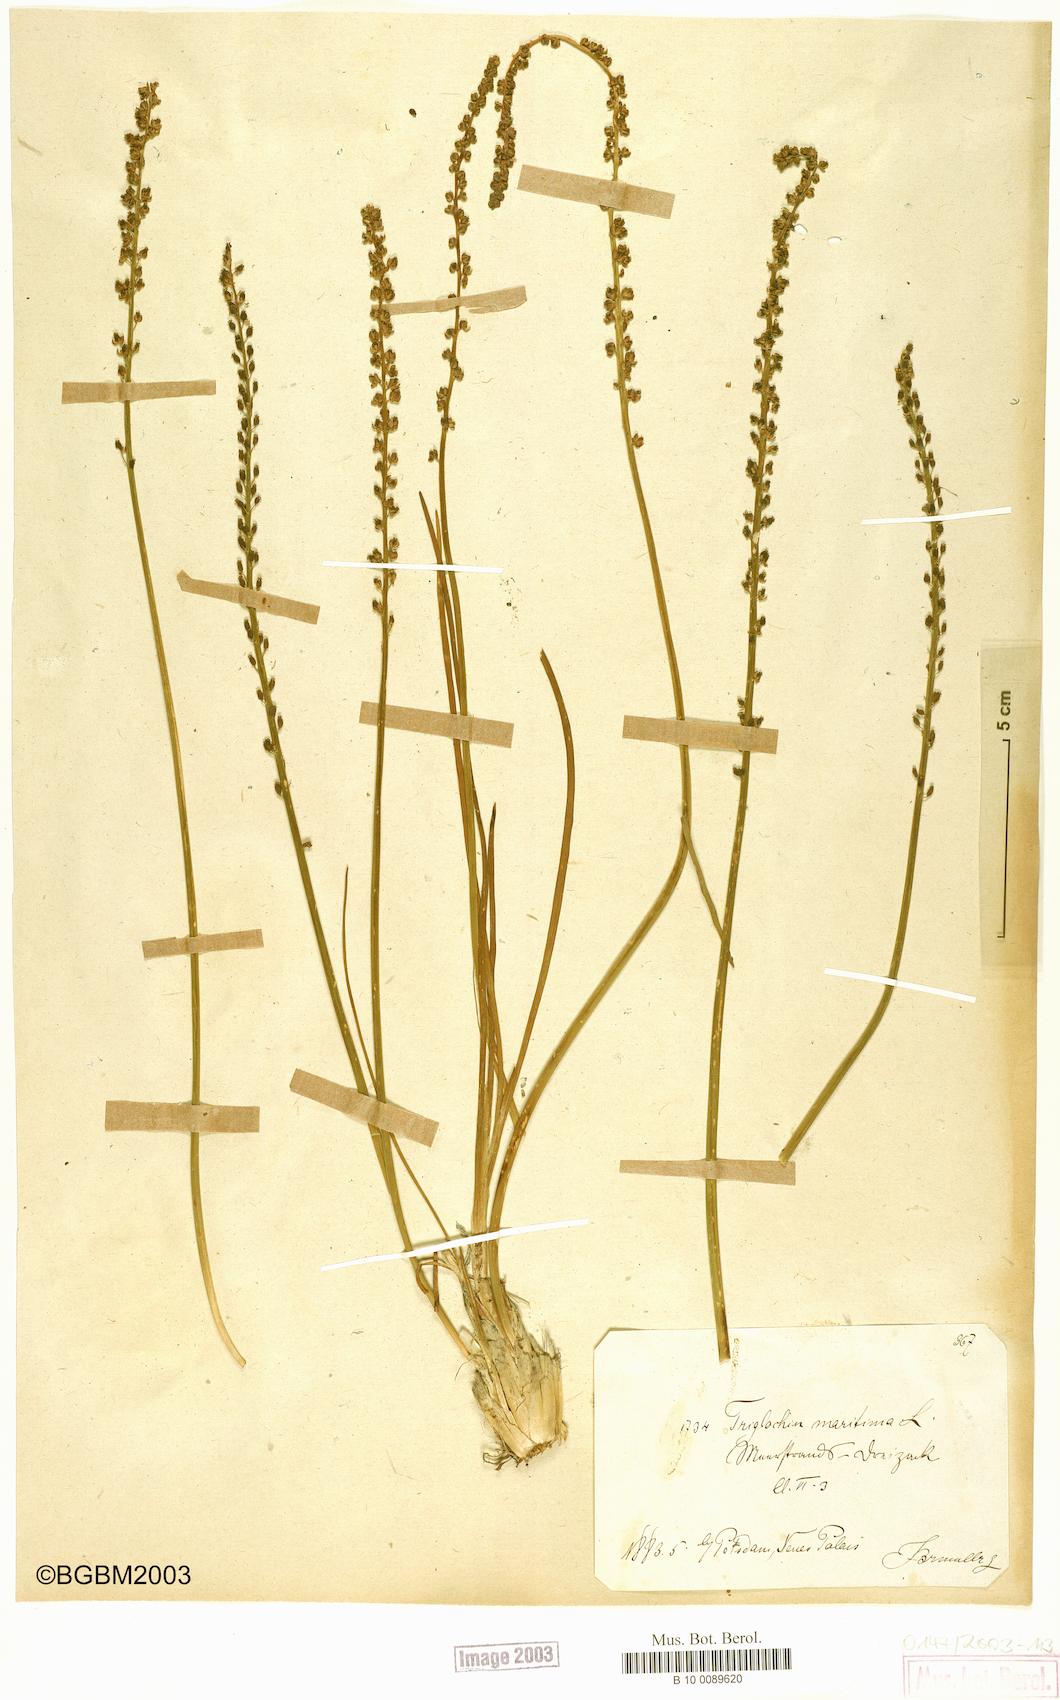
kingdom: Plantae
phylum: Tracheophyta
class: Liliopsida
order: Alismatales
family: Juncaginaceae
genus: Triglochin
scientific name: Triglochin maritima
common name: Sea arrowgrass
